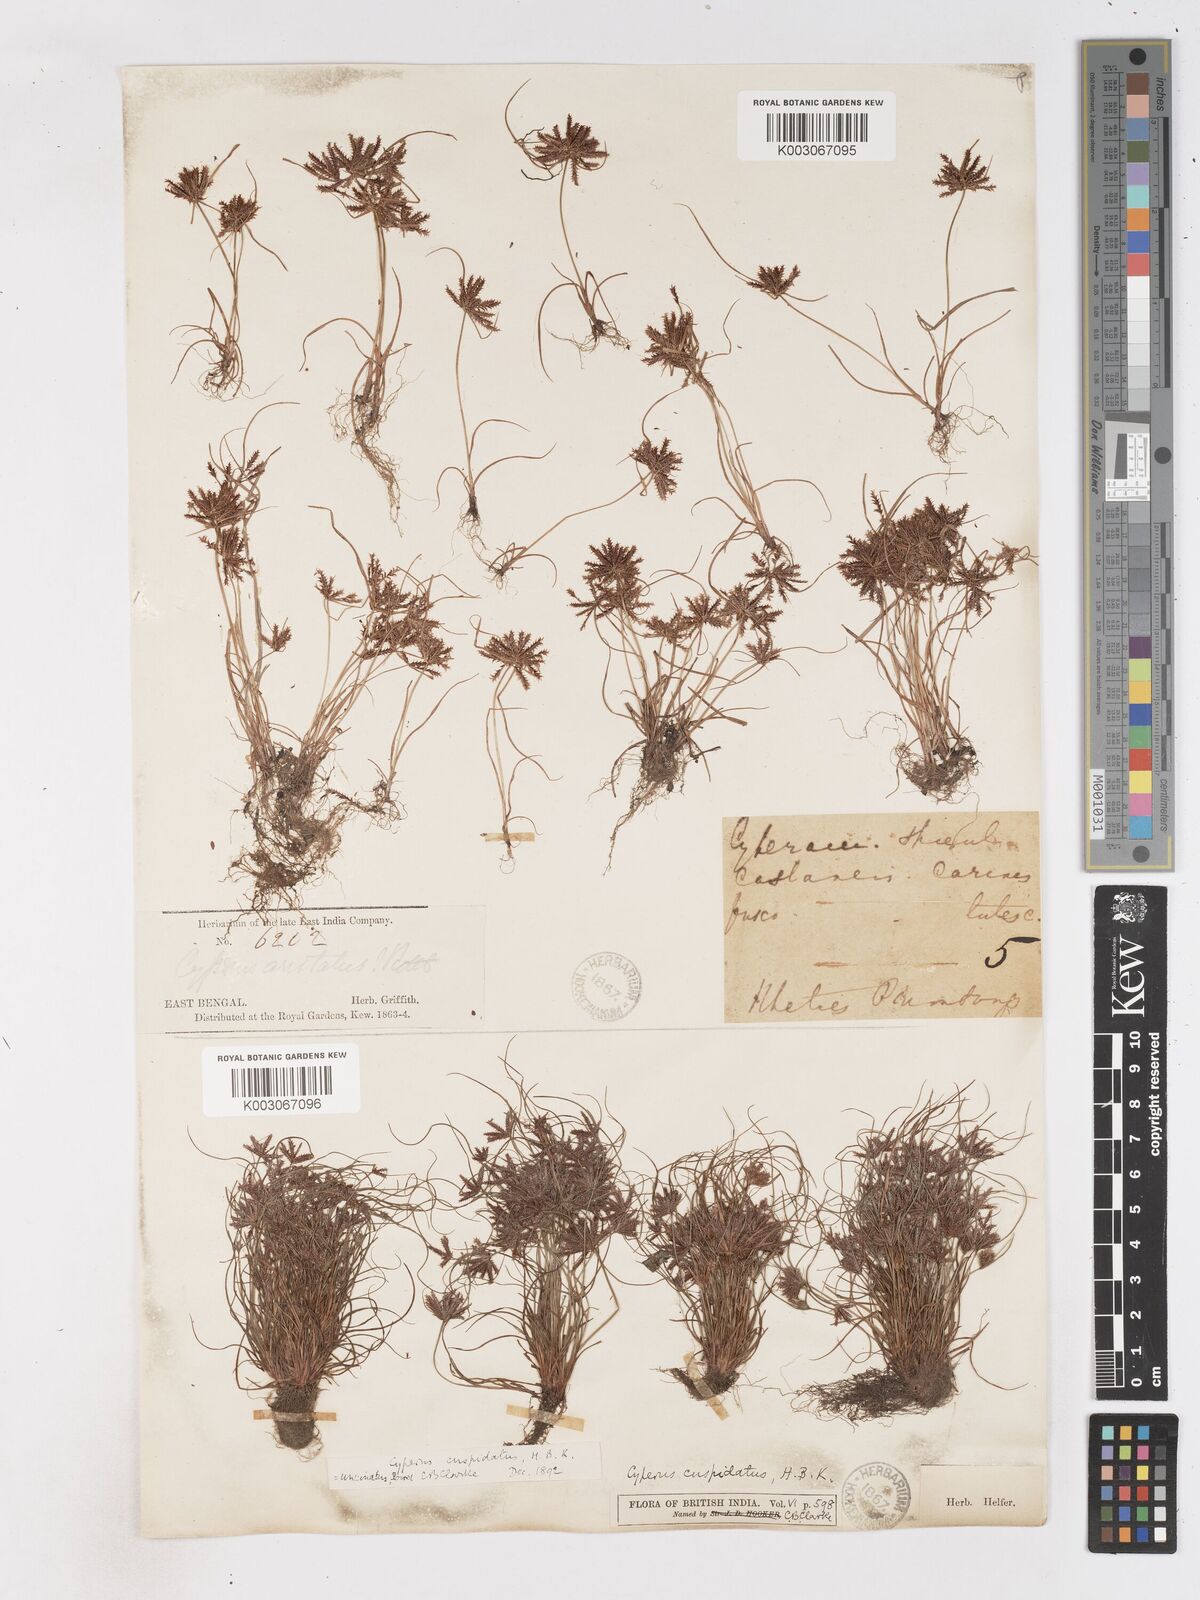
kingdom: Plantae
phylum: Tracheophyta
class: Liliopsida
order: Poales
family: Cyperaceae
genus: Cyperus
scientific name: Cyperus cuspidatus
